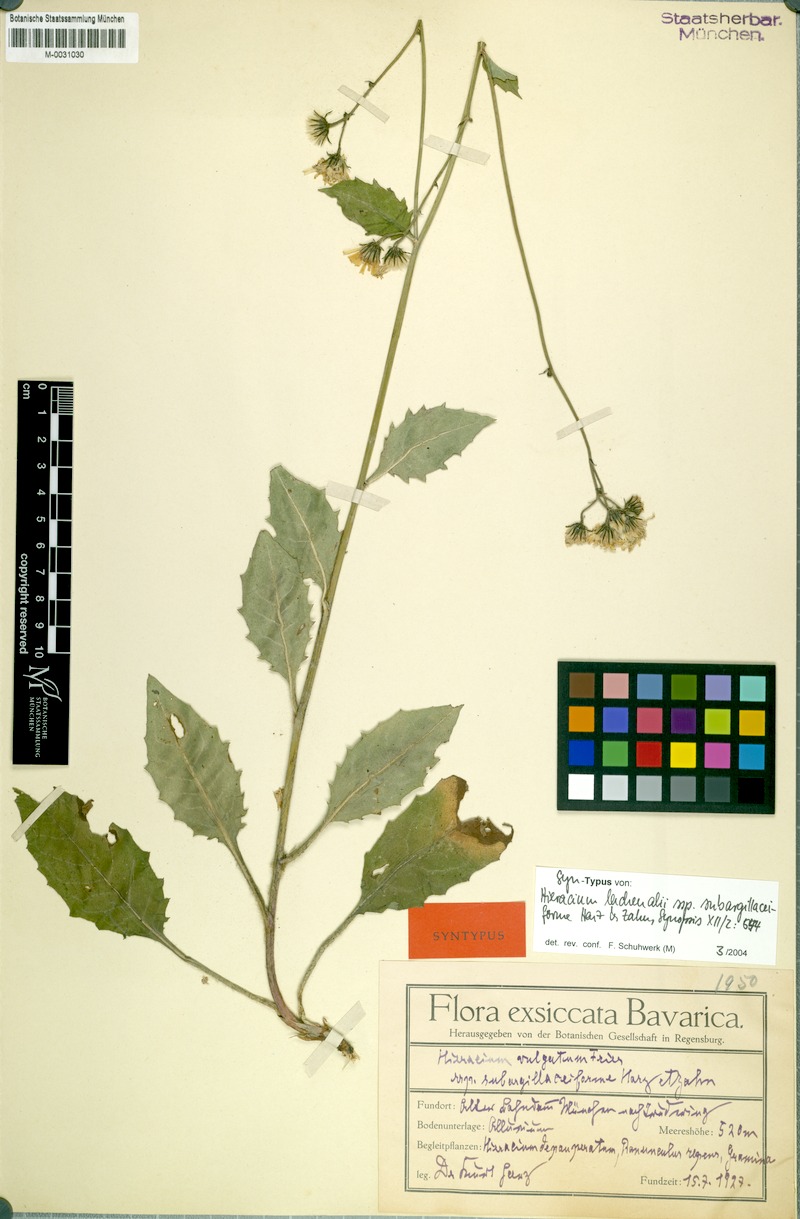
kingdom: Plantae
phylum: Tracheophyta
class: Magnoliopsida
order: Asterales
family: Asteraceae
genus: Hieracium
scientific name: Hieracium lachenalii
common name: Common hawkweed
